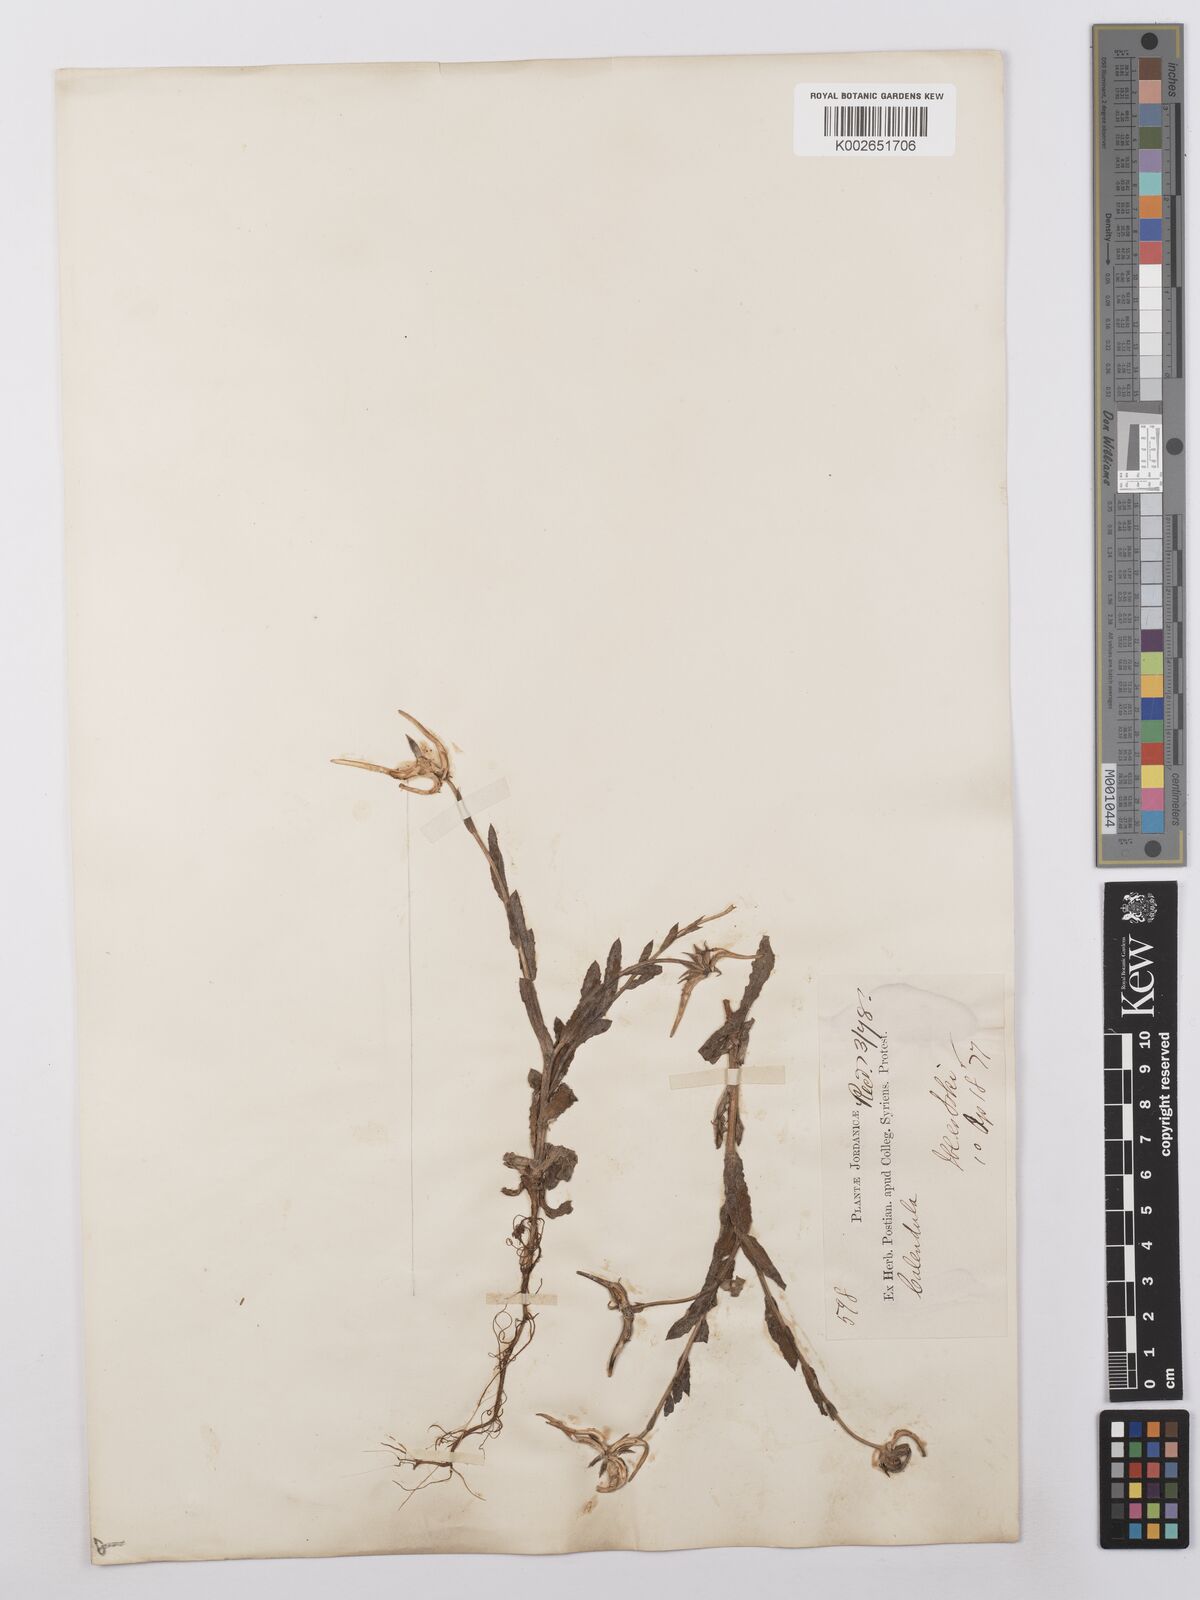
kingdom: Plantae
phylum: Tracheophyta
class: Magnoliopsida
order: Asterales
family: Asteraceae
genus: Calendula
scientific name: Calendula palaestina
